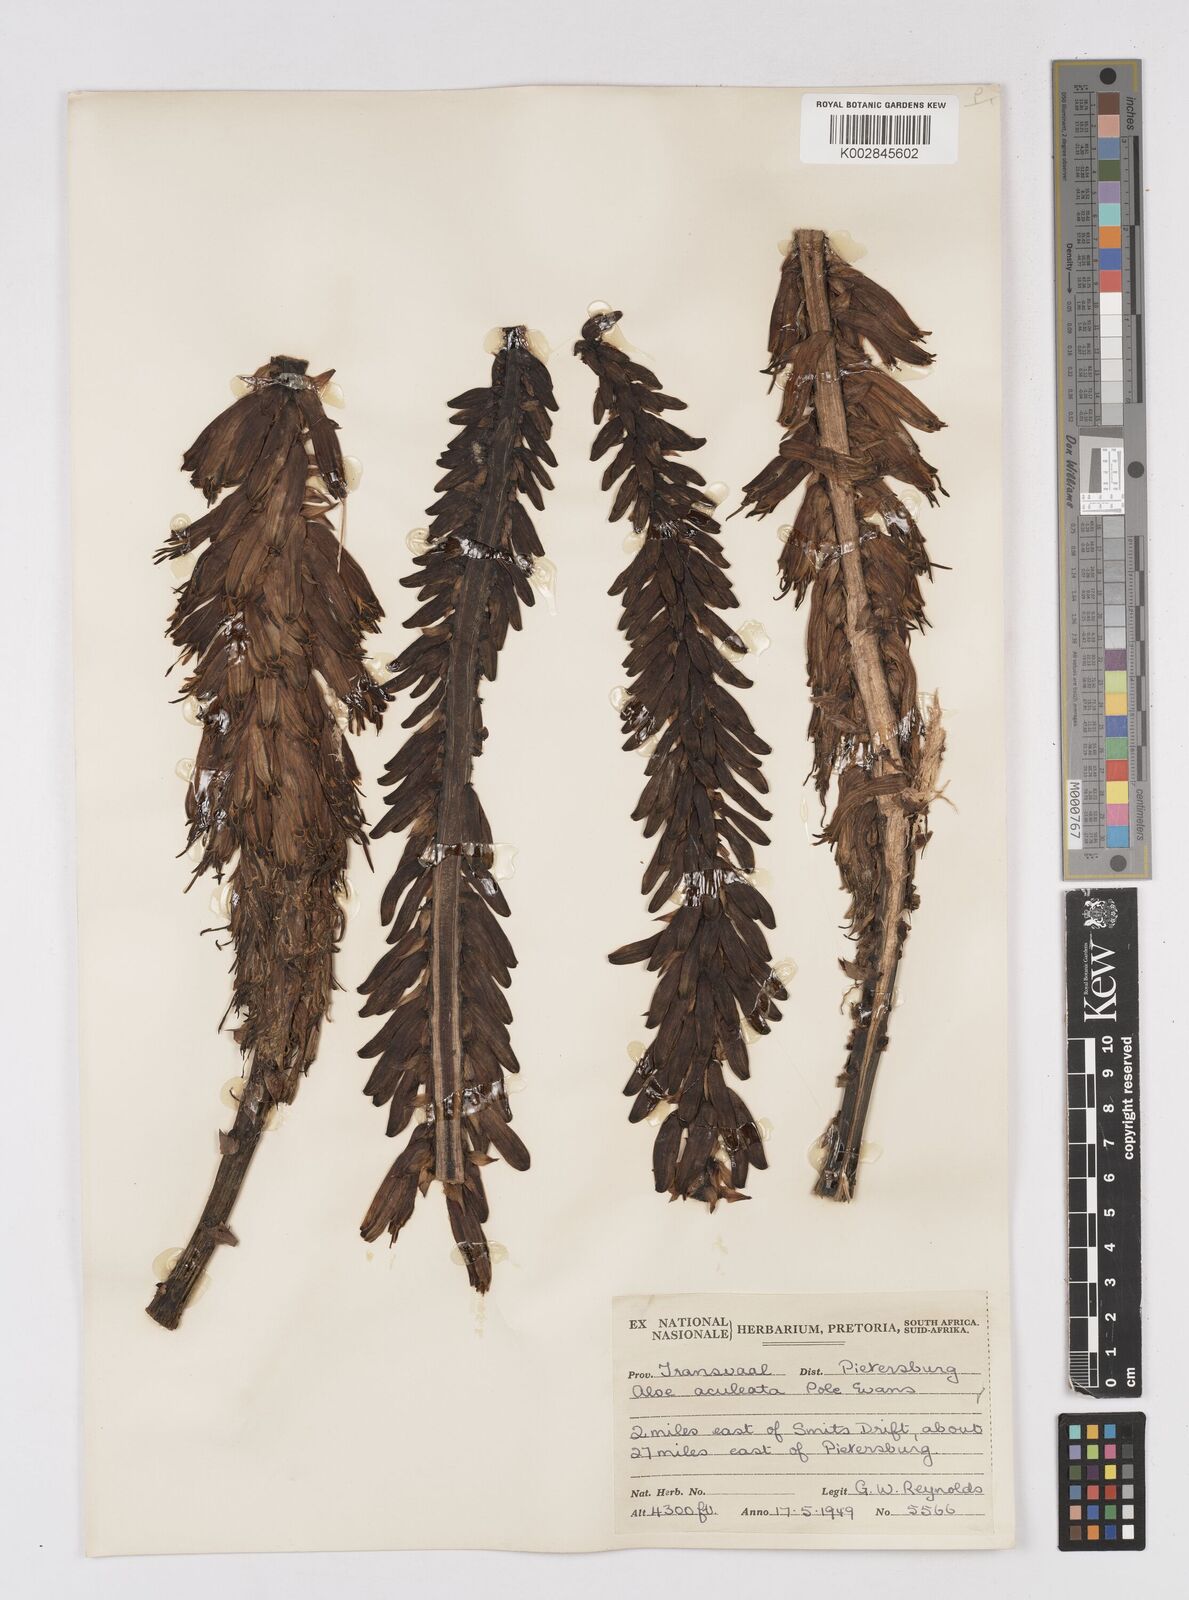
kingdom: Plantae
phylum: Tracheophyta
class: Liliopsida
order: Asparagales
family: Asphodelaceae
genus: Aloe
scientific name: Aloe aculeata
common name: Red hot poker aloe
